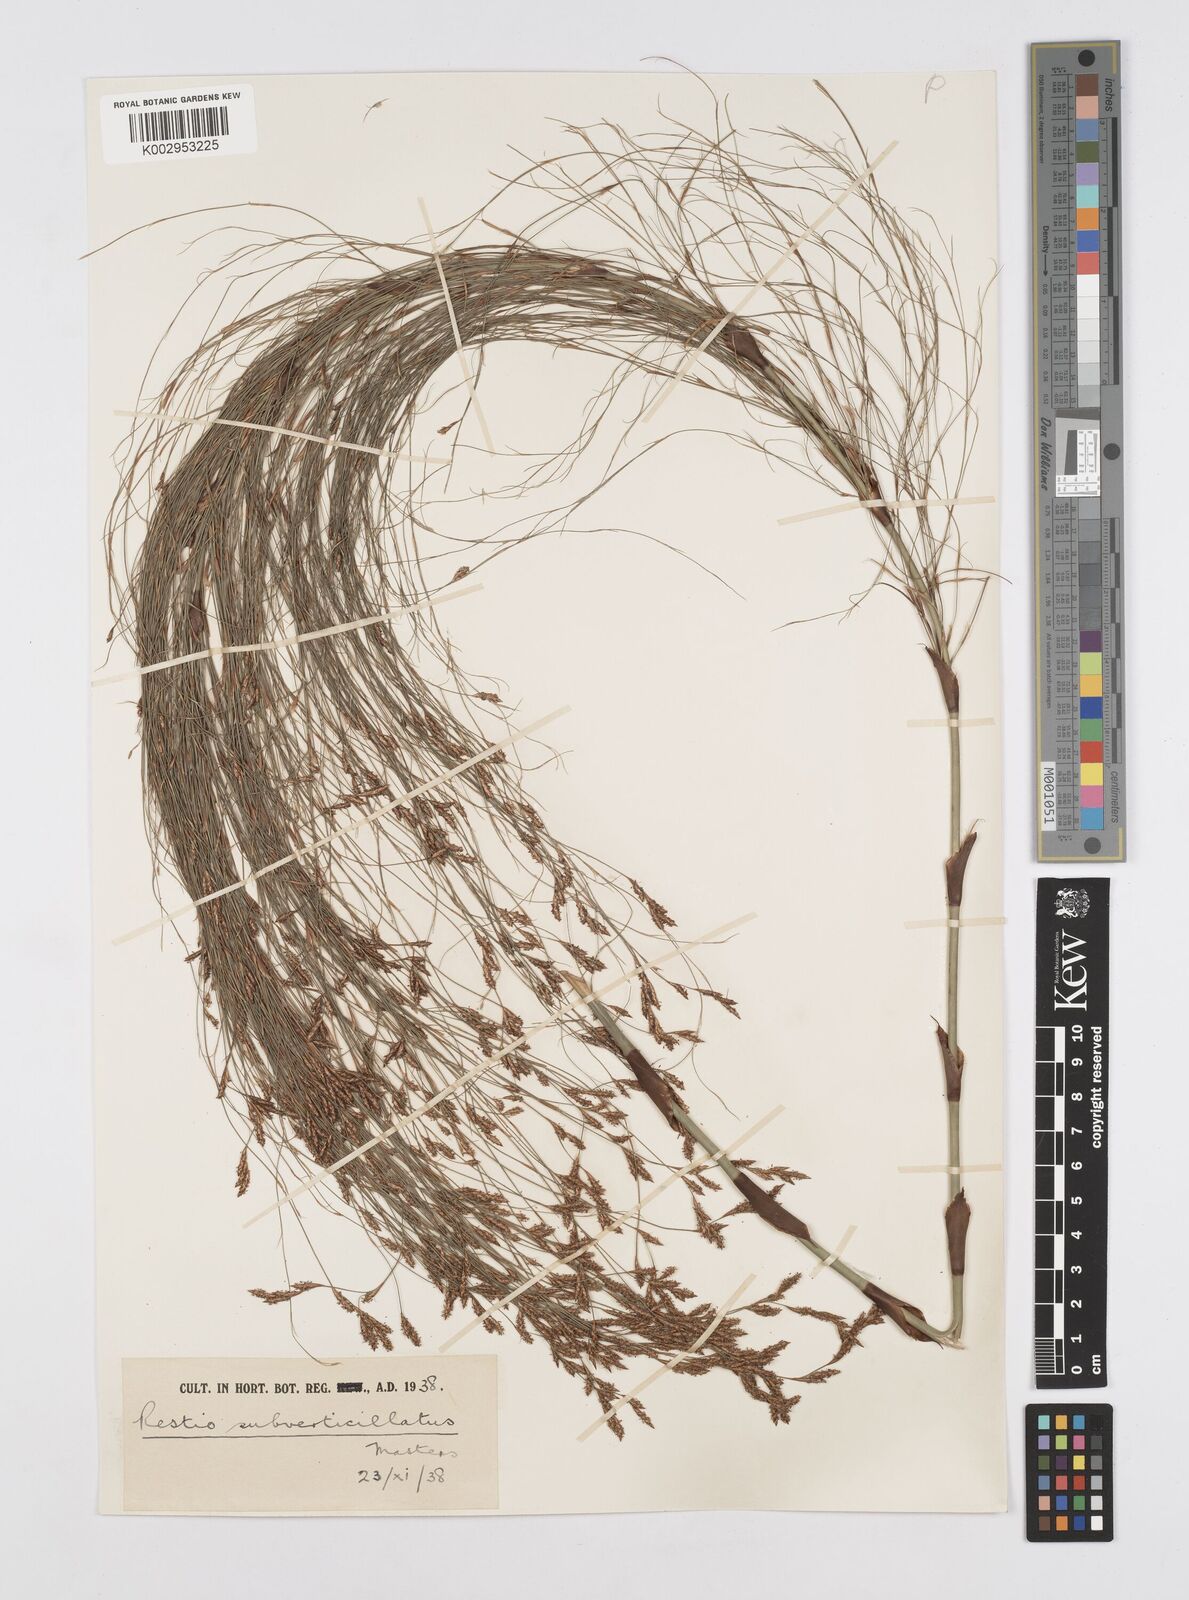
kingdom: Plantae
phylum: Tracheophyta
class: Liliopsida
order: Poales
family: Restionaceae
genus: Restio
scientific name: Restio subverticillatus
